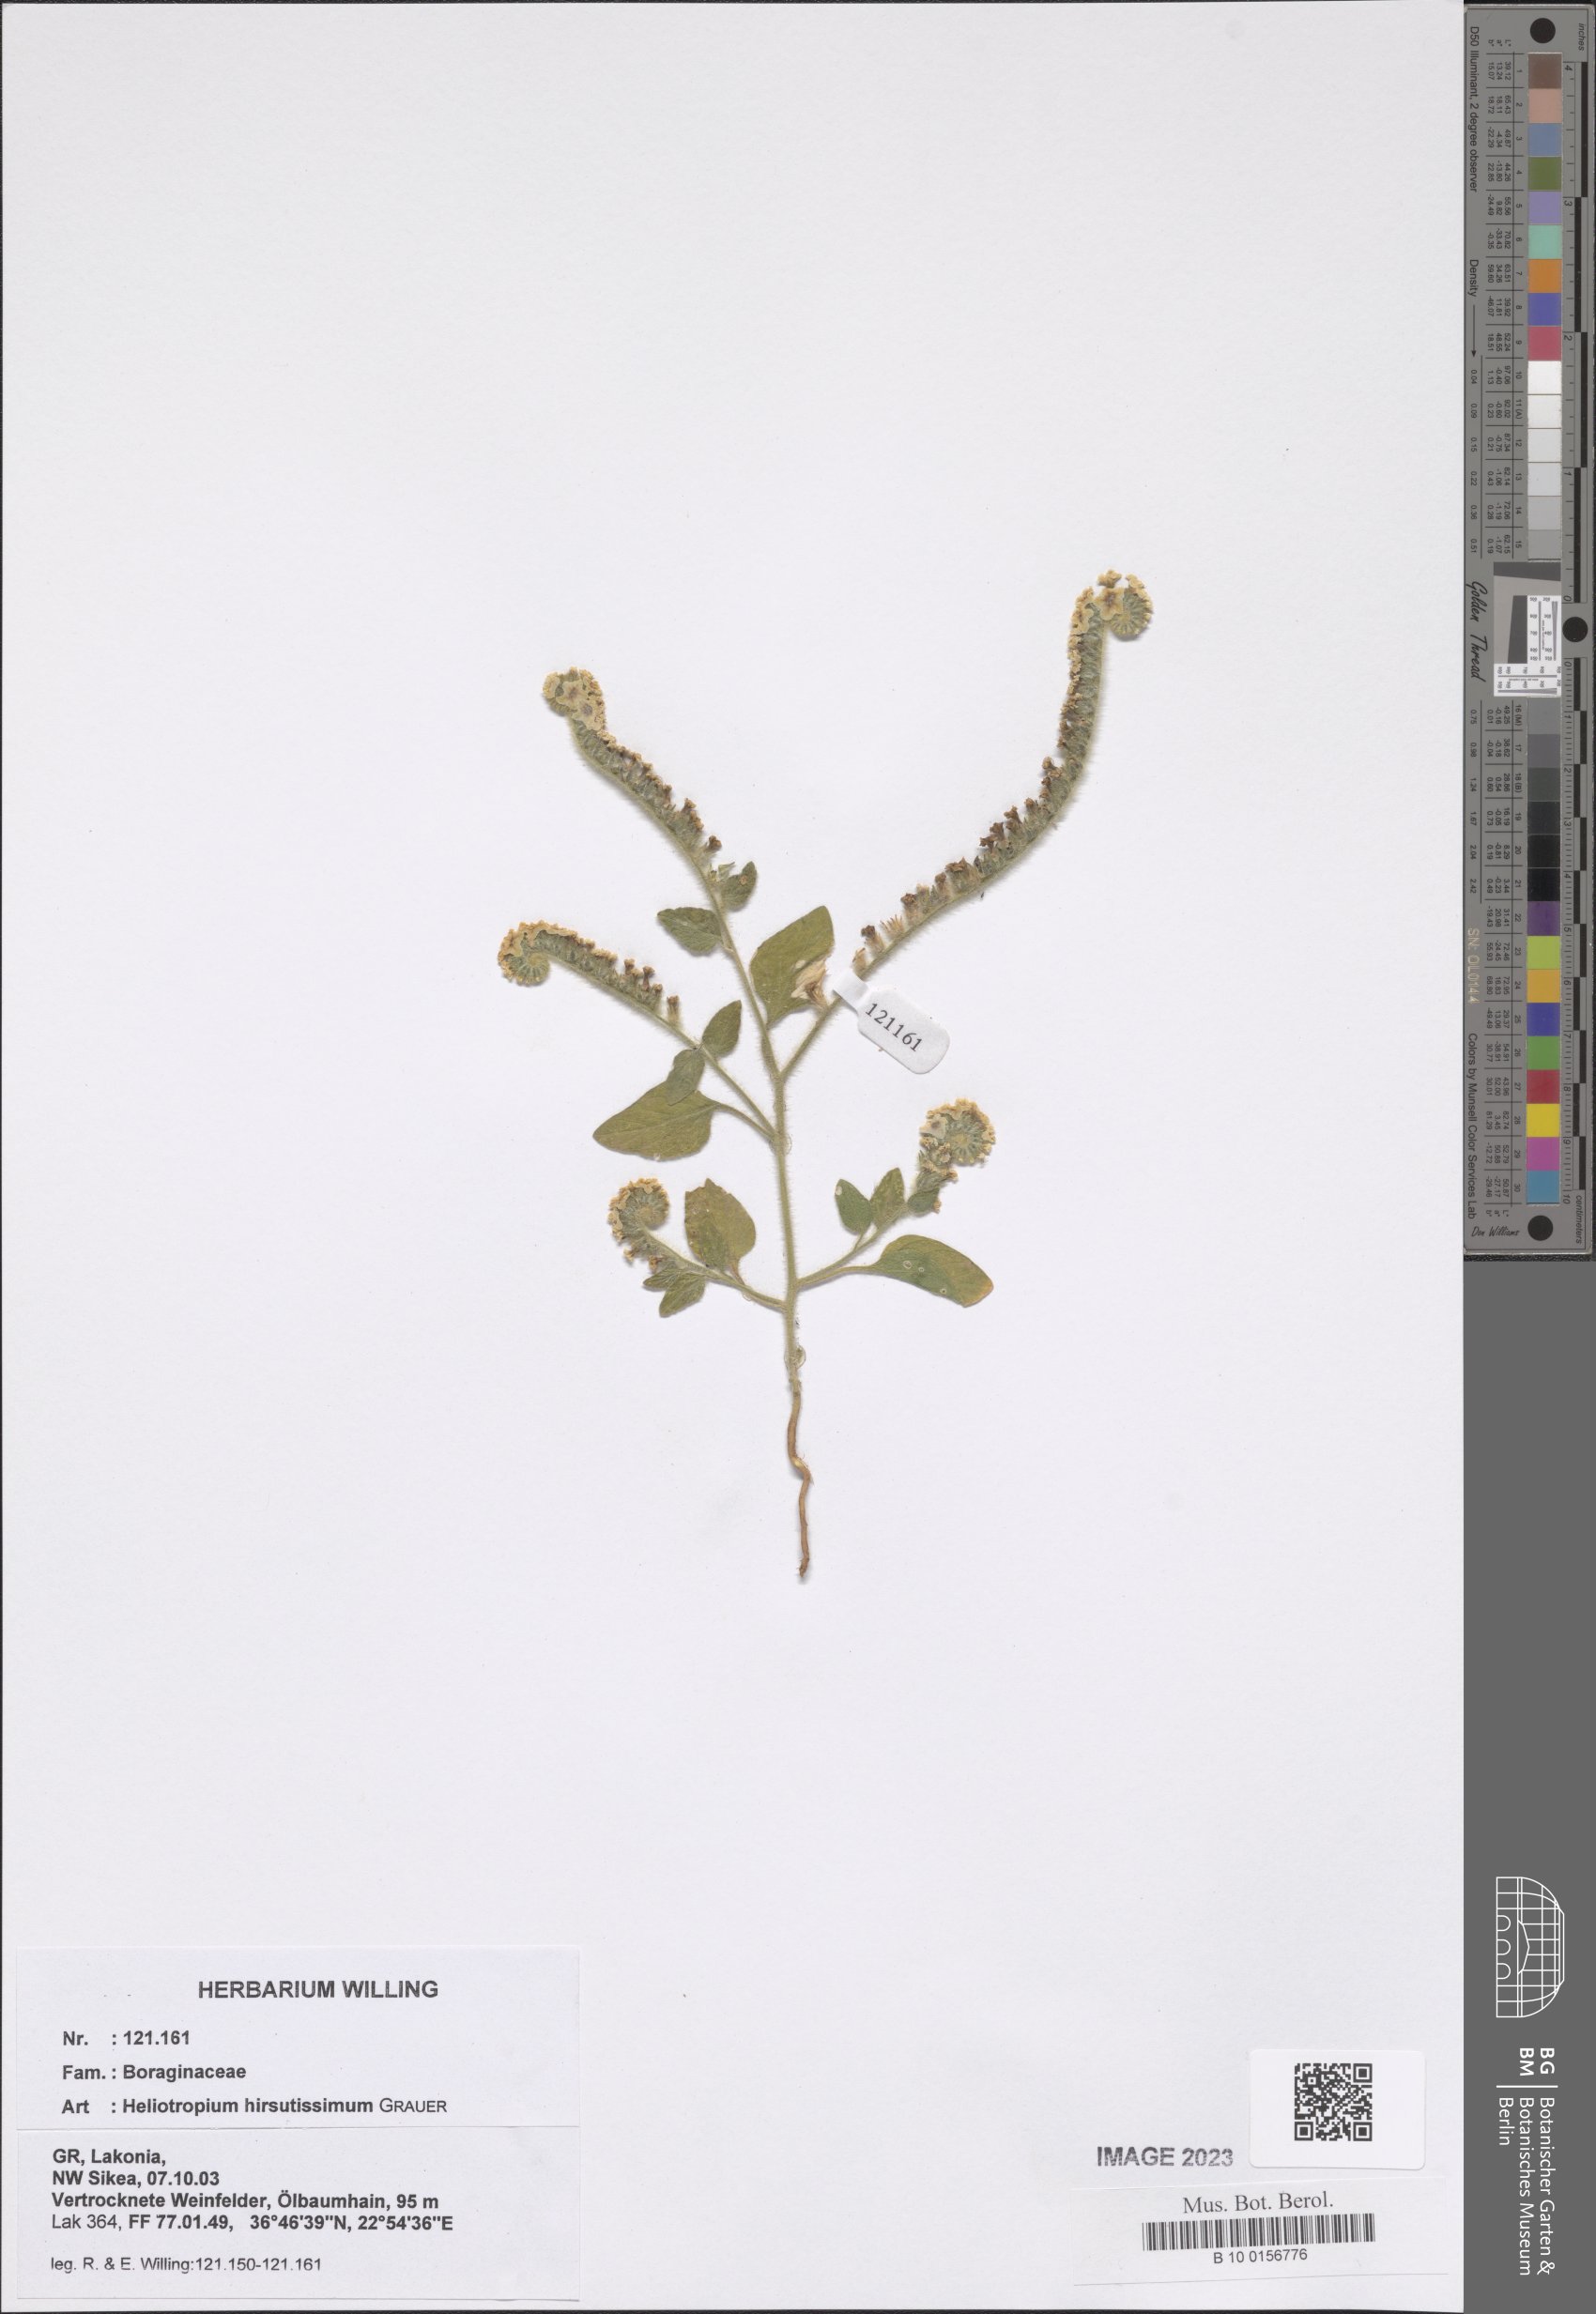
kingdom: Plantae
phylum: Tracheophyta
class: Magnoliopsida
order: Boraginales
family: Heliotropiaceae
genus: Heliotropium
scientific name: Heliotropium hirsutissimum
